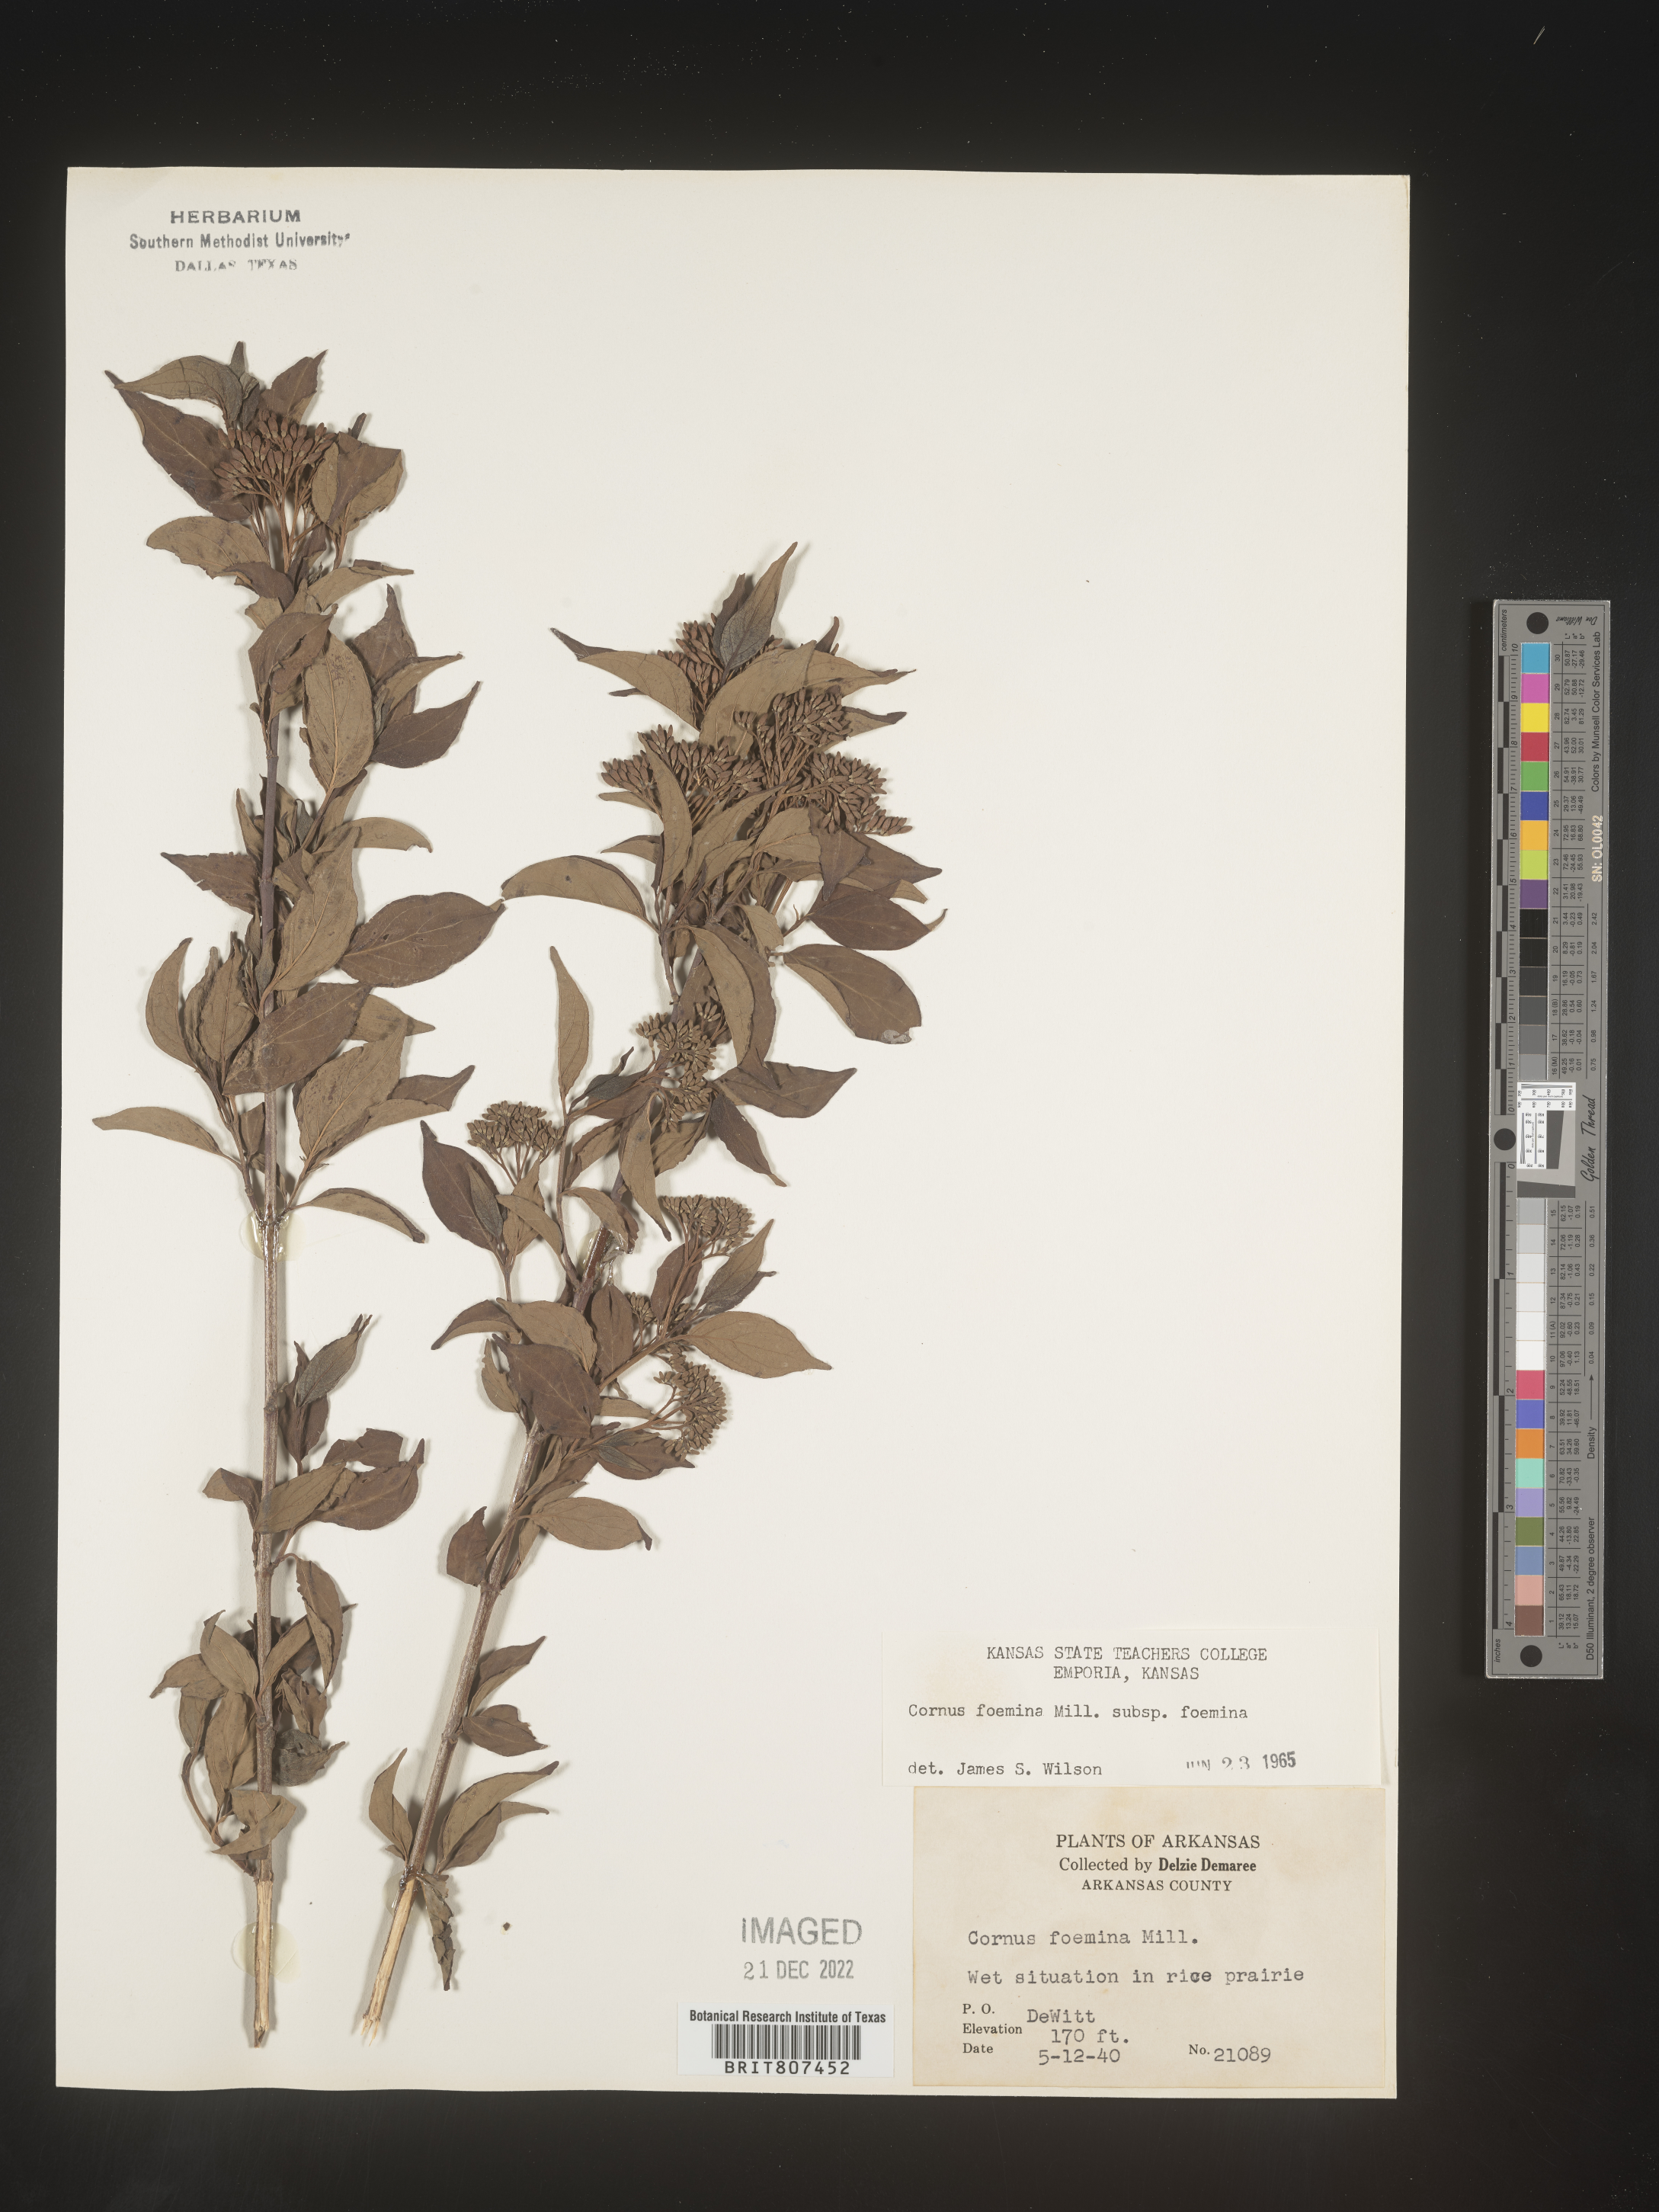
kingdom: Plantae
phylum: Tracheophyta
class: Magnoliopsida
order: Cornales
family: Cornaceae
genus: Cornus
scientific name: Cornus foemina
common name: Swamp dogwood
